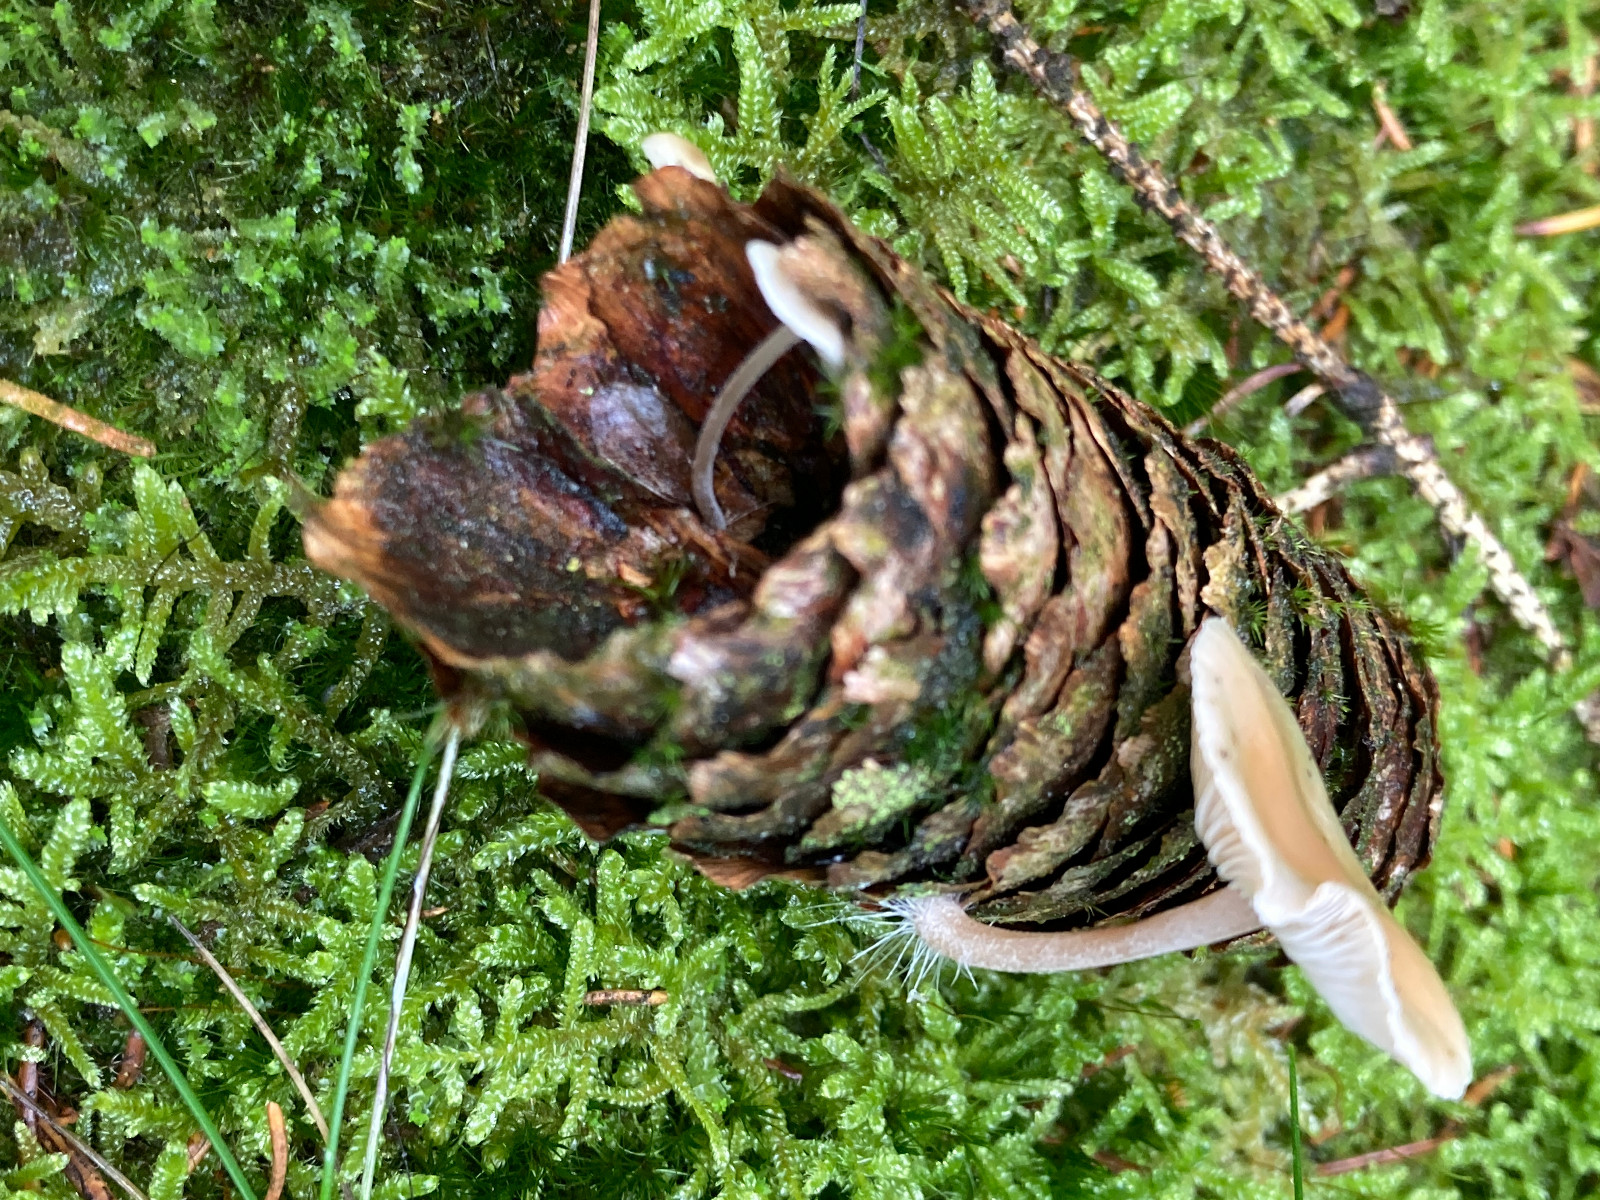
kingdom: Fungi
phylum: Basidiomycota
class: Agaricomycetes
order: Agaricales
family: Physalacriaceae
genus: Strobilurus
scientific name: Strobilurus esculentus
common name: gran-koglehat
